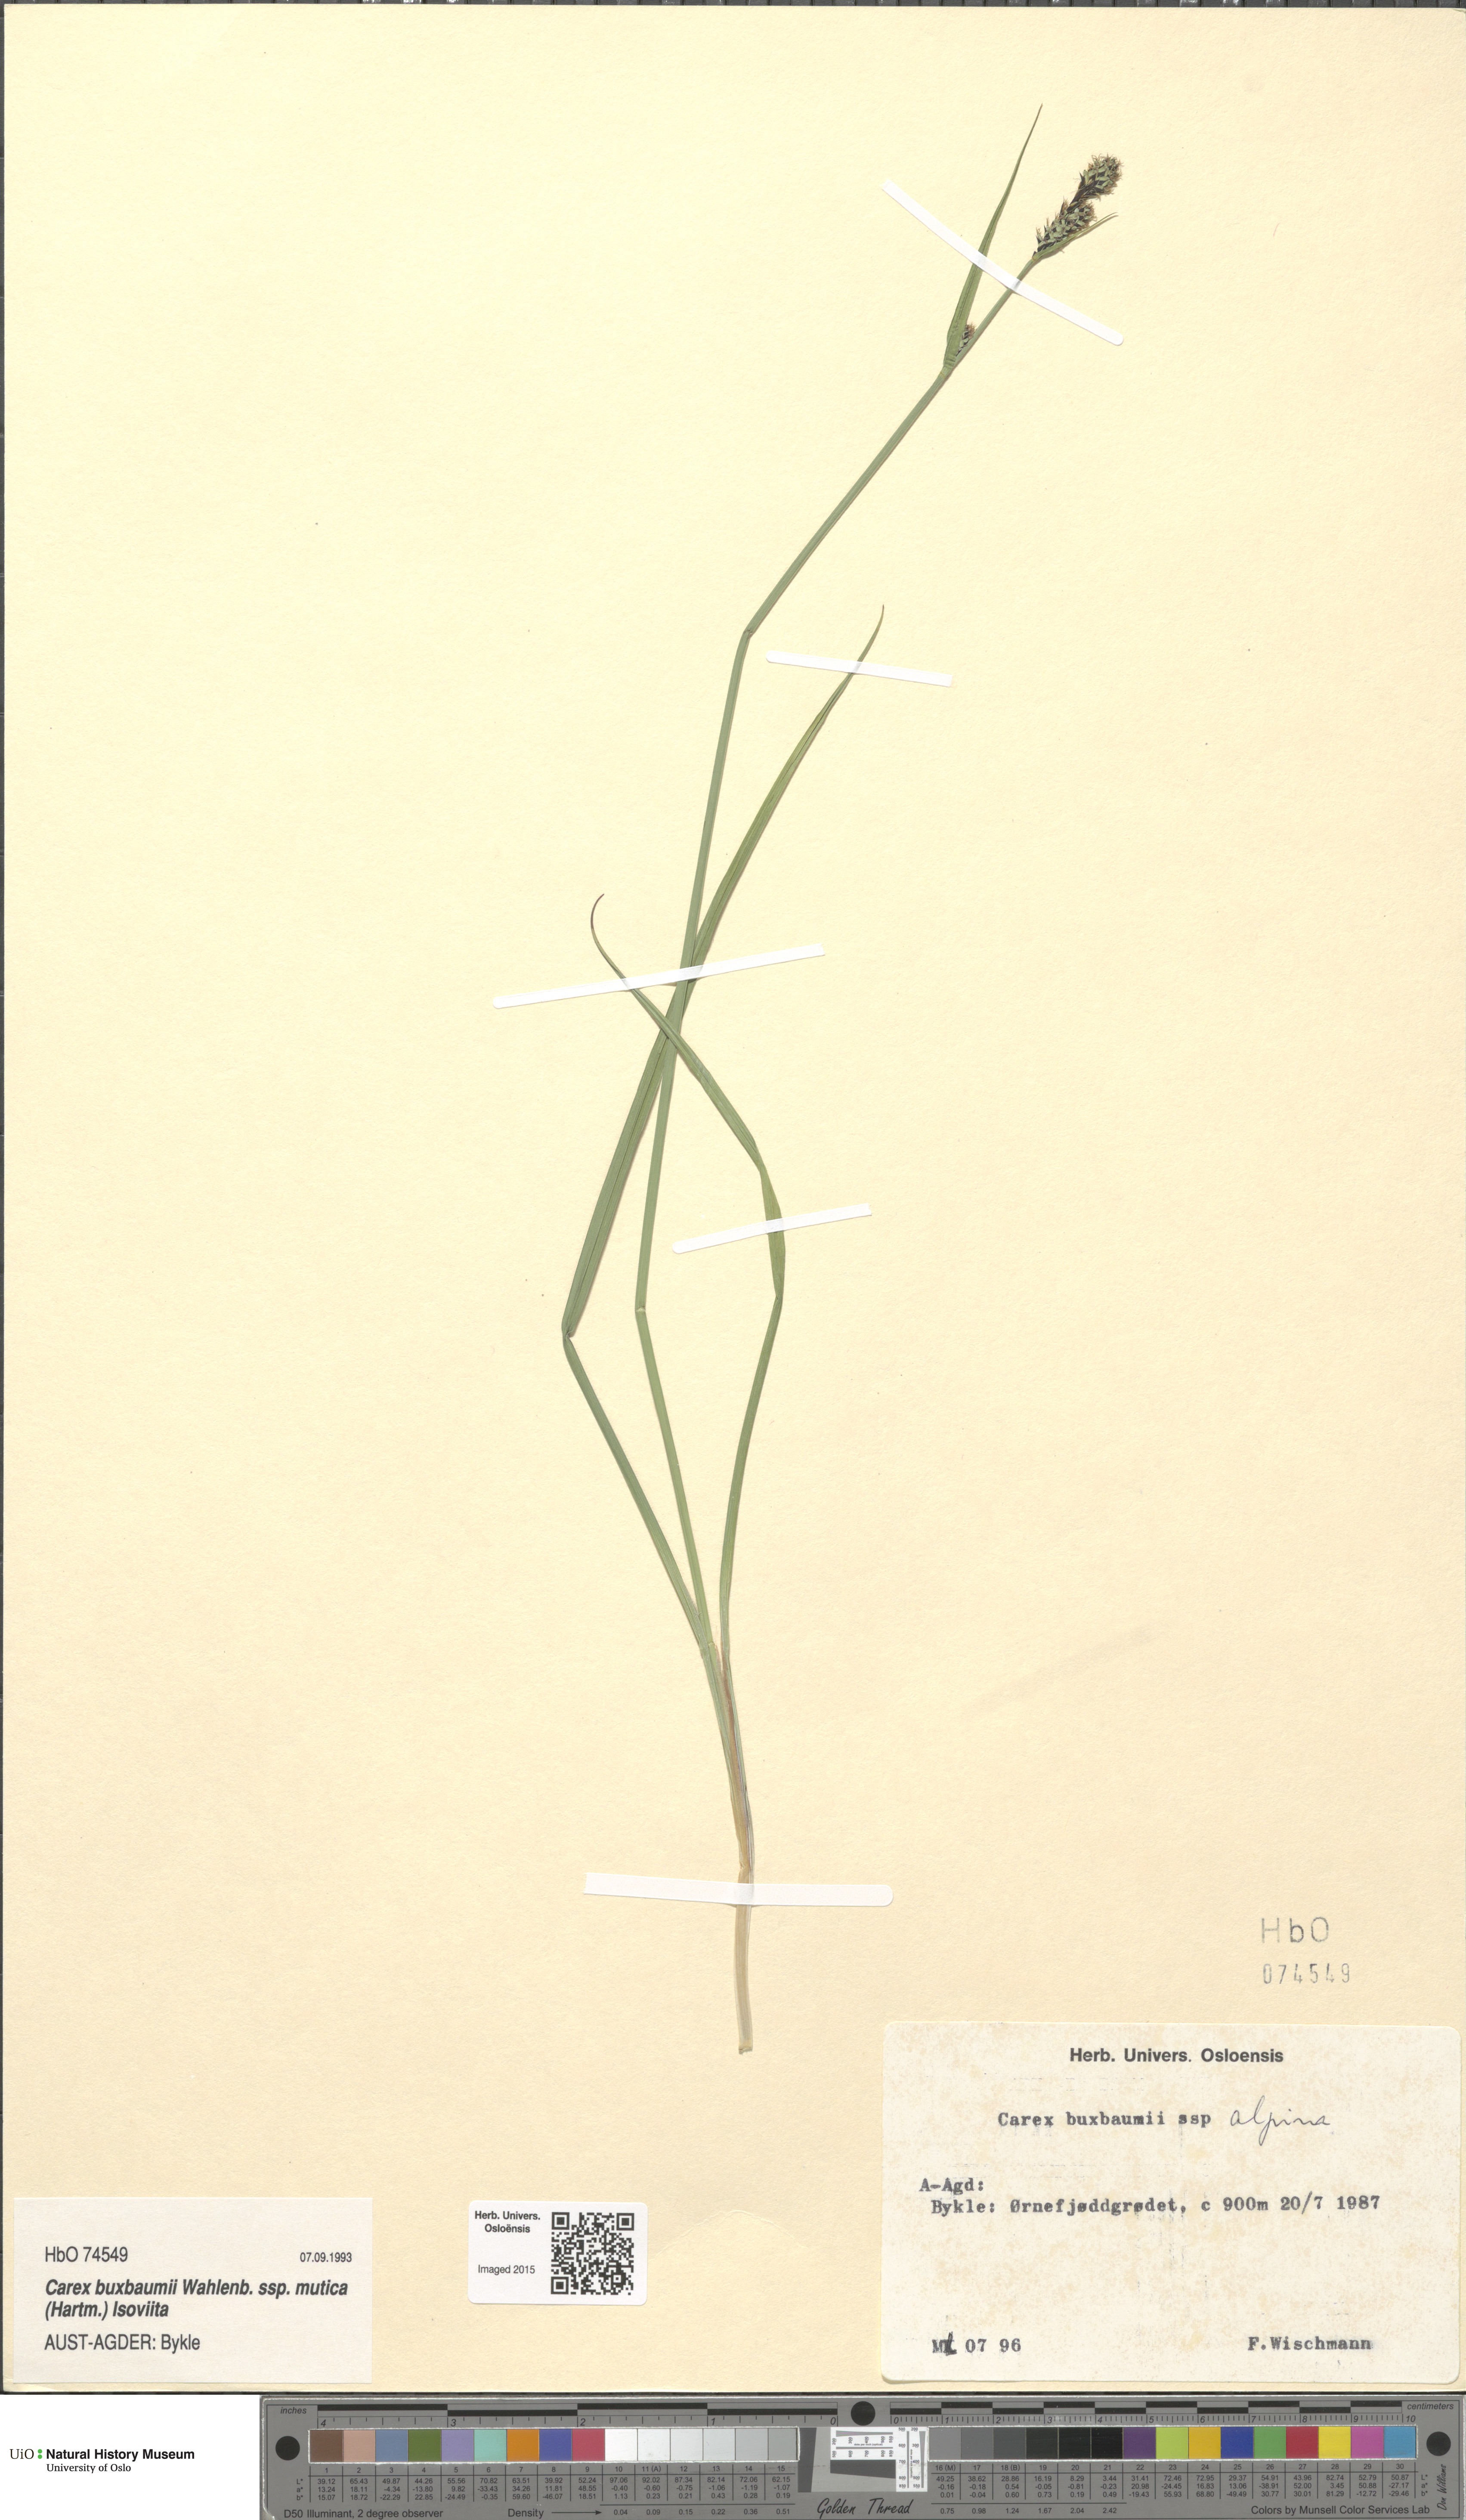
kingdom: Plantae
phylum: Tracheophyta
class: Liliopsida
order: Poales
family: Cyperaceae
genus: Carex
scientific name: Carex adelostoma
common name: Circumpolar sedge
